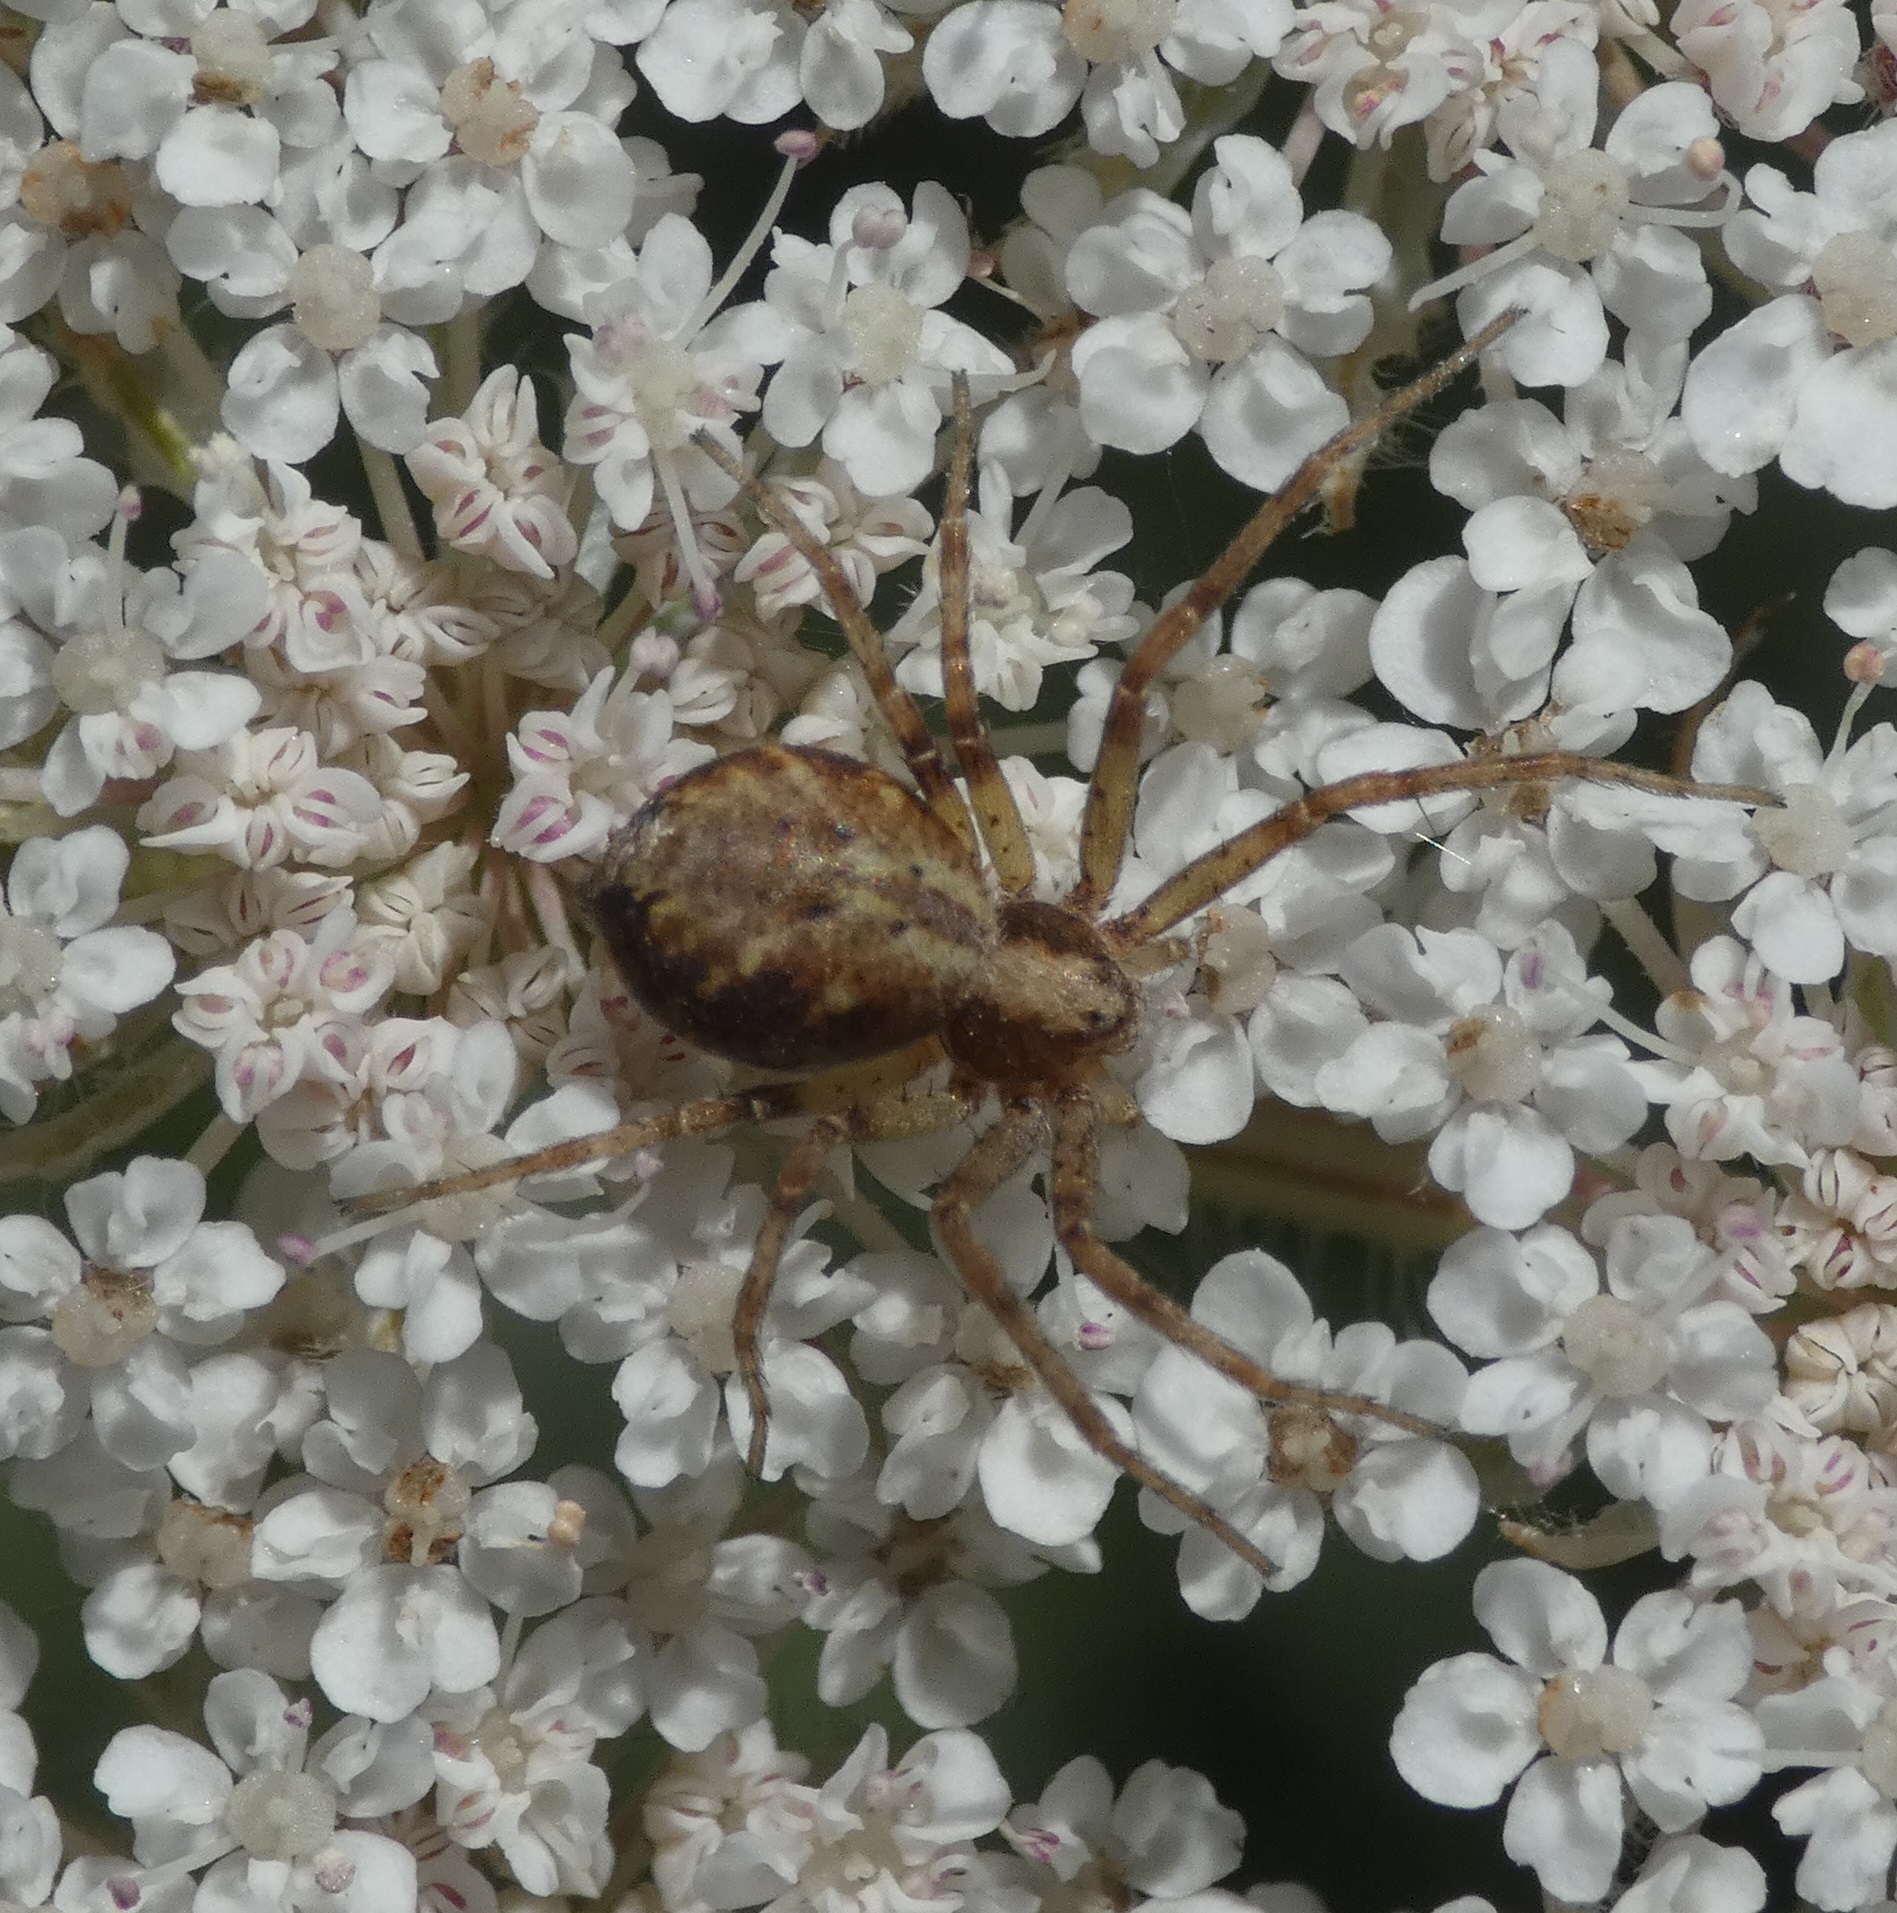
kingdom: Animalia
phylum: Arthropoda
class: Arachnida
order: Araneae
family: Philodromidae
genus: Philodromus
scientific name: Philodromus cespitum
